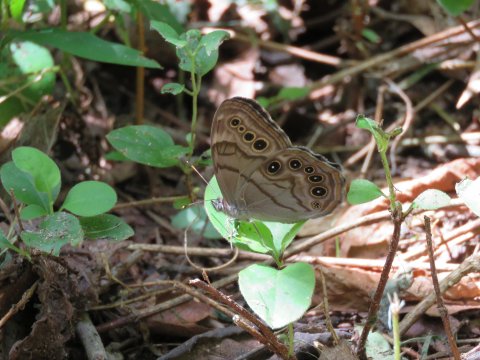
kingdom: Animalia
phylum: Arthropoda
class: Insecta
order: Lepidoptera
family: Nymphalidae
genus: Lethe
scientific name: Lethe anthedon
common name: Northern Pearly-Eye
